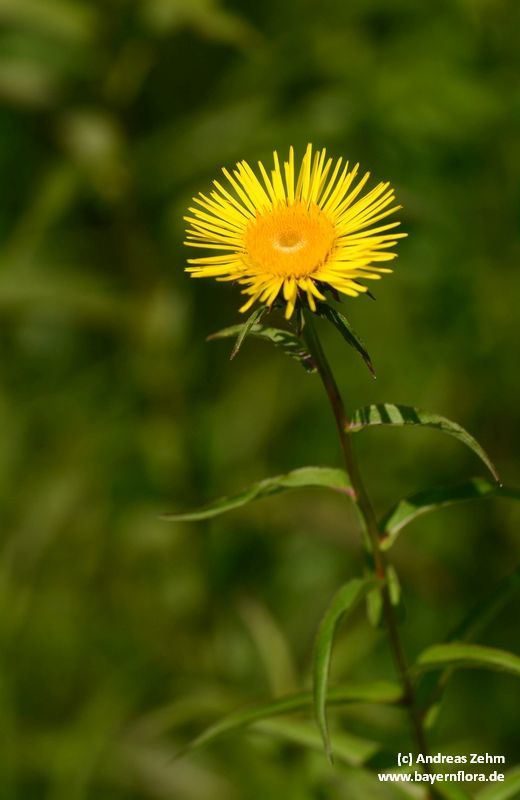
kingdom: Plantae
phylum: Tracheophyta
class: Magnoliopsida
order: Asterales
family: Asteraceae
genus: Pentanema
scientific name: Pentanema salicinum
